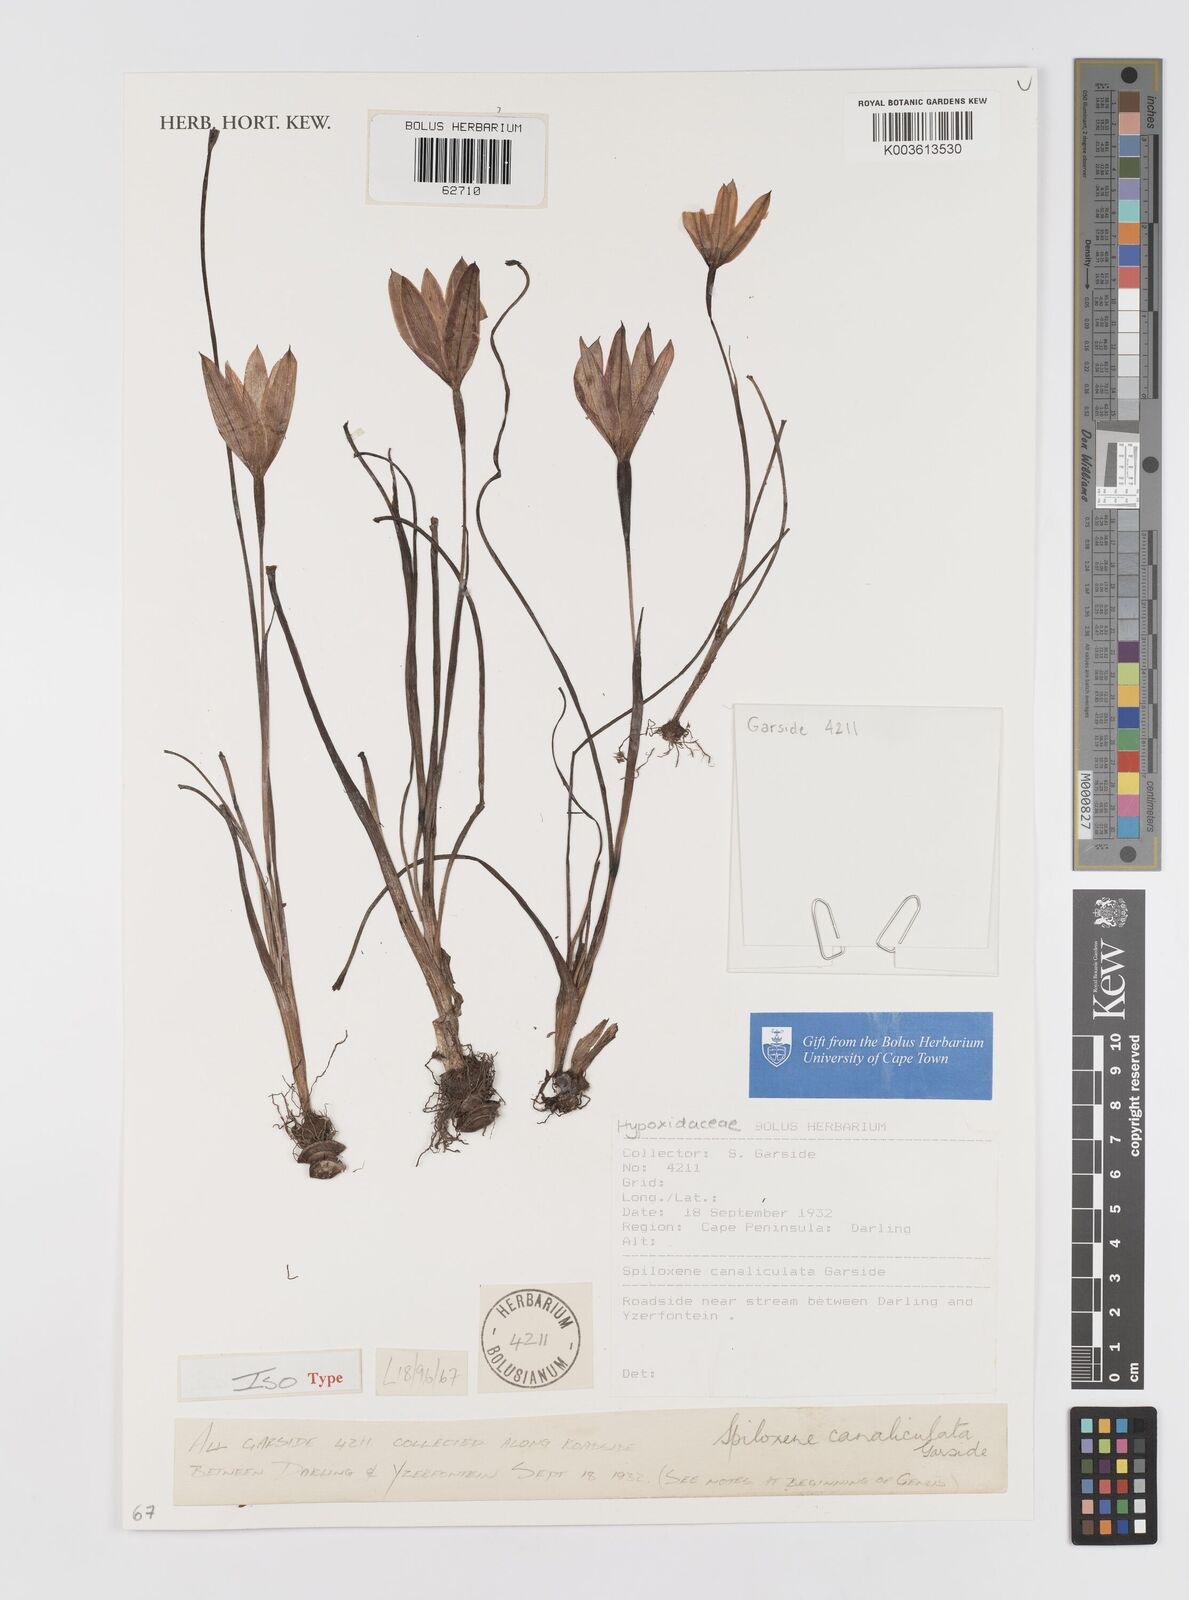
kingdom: Plantae
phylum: Tracheophyta
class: Liliopsida
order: Asparagales
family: Hypoxidaceae
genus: Pauridia
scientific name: Pauridia canaliculata
